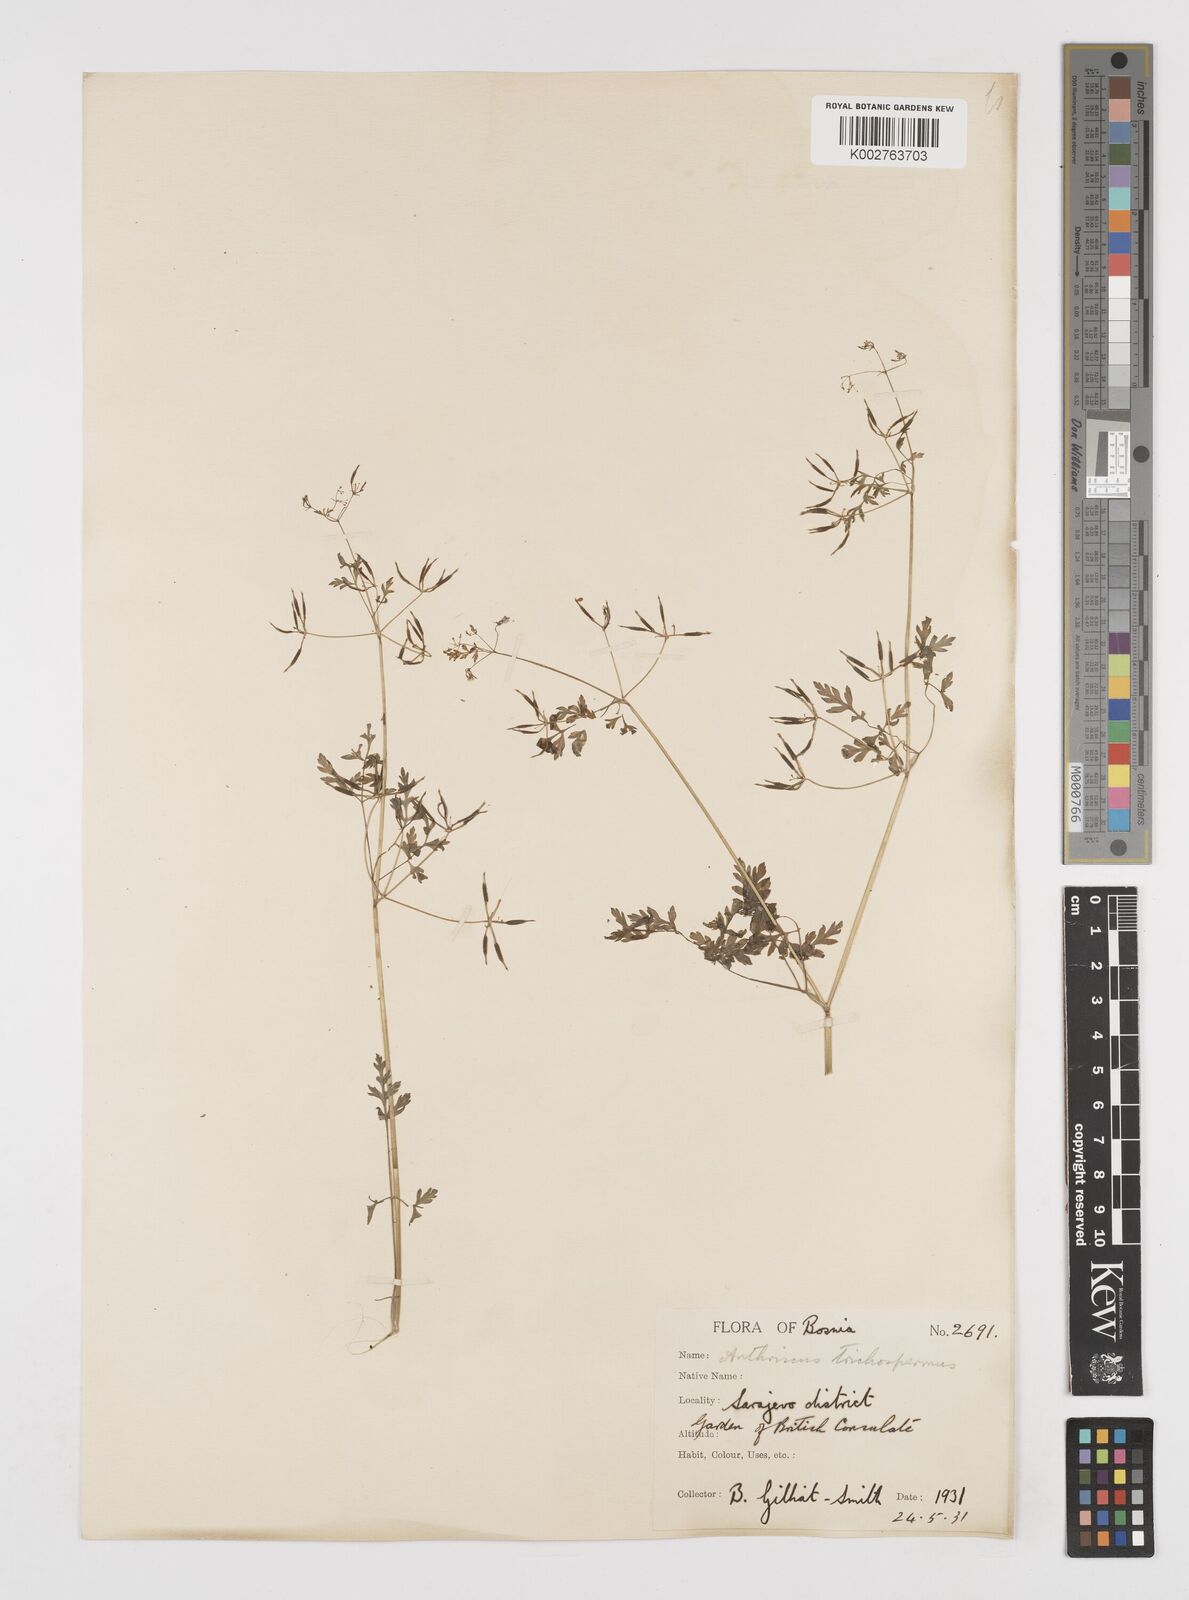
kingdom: Plantae
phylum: Tracheophyta
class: Magnoliopsida
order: Apiales
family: Apiaceae
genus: Anthriscus
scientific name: Anthriscus
